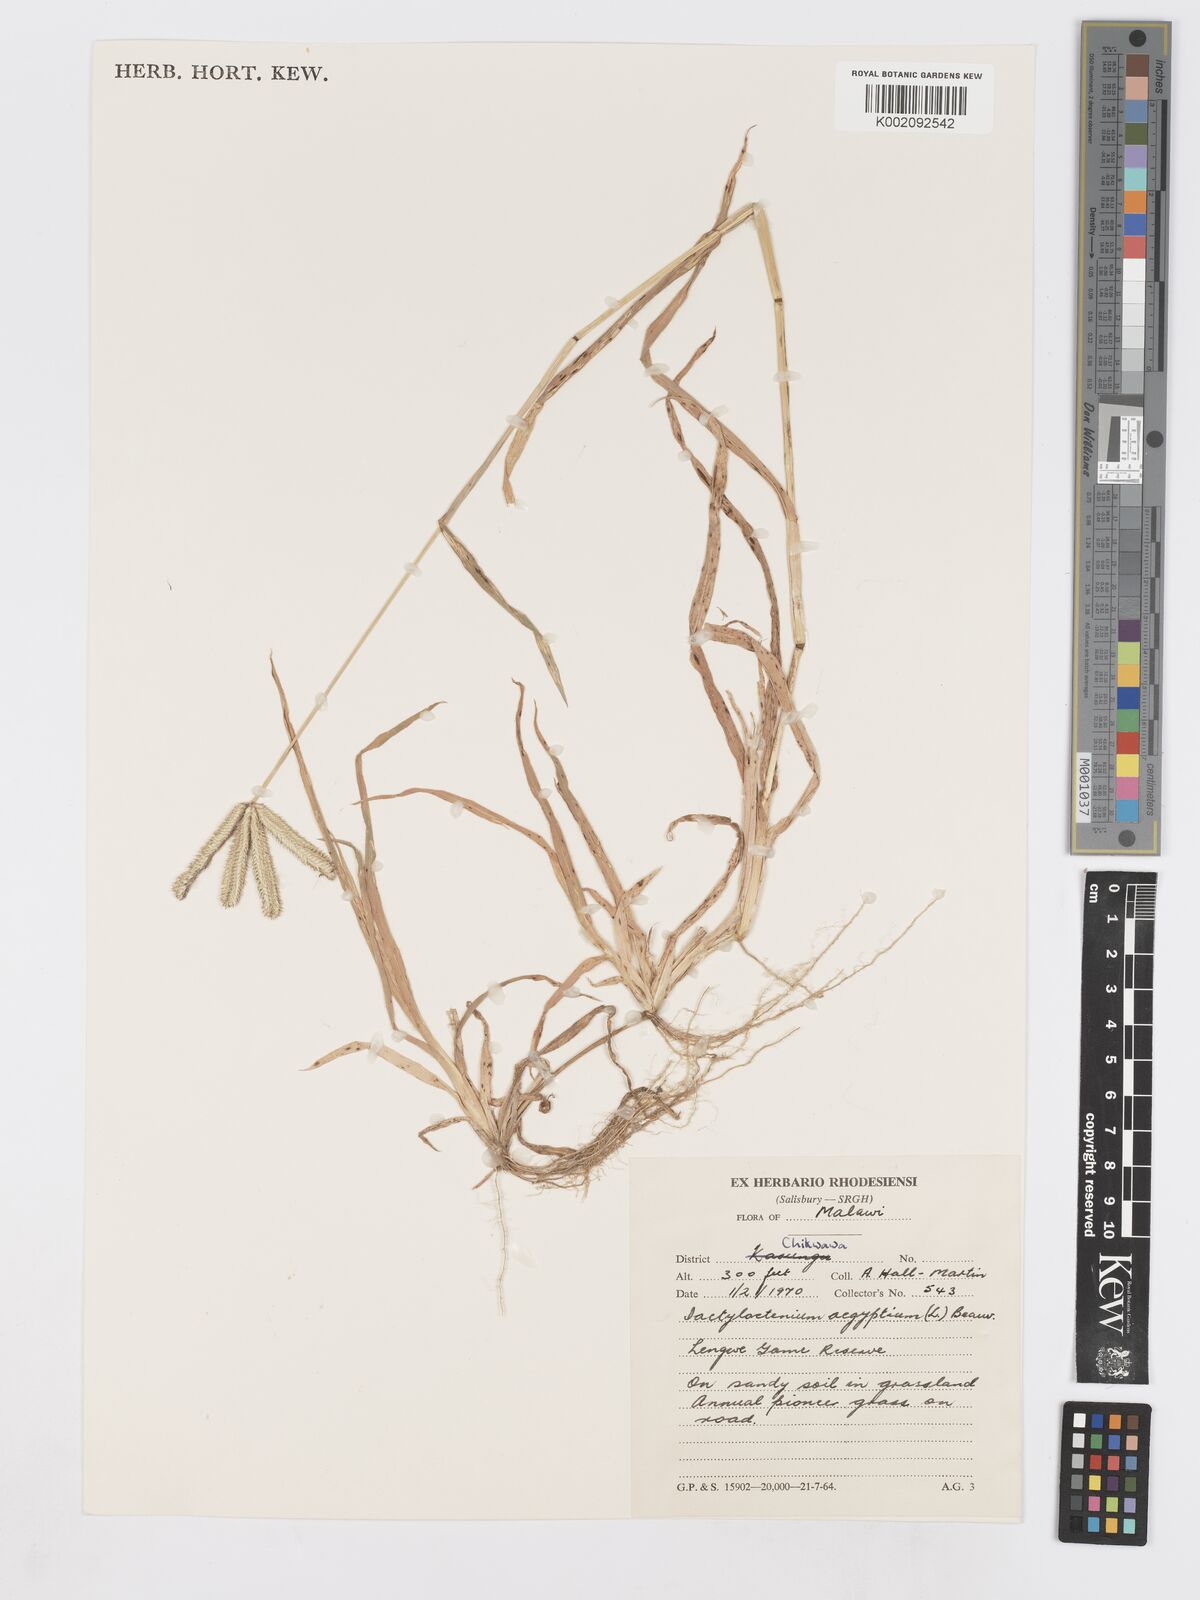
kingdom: Plantae
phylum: Tracheophyta
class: Liliopsida
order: Poales
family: Poaceae
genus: Dactyloctenium
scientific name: Dactyloctenium aegyptium
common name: Egyptian grass
